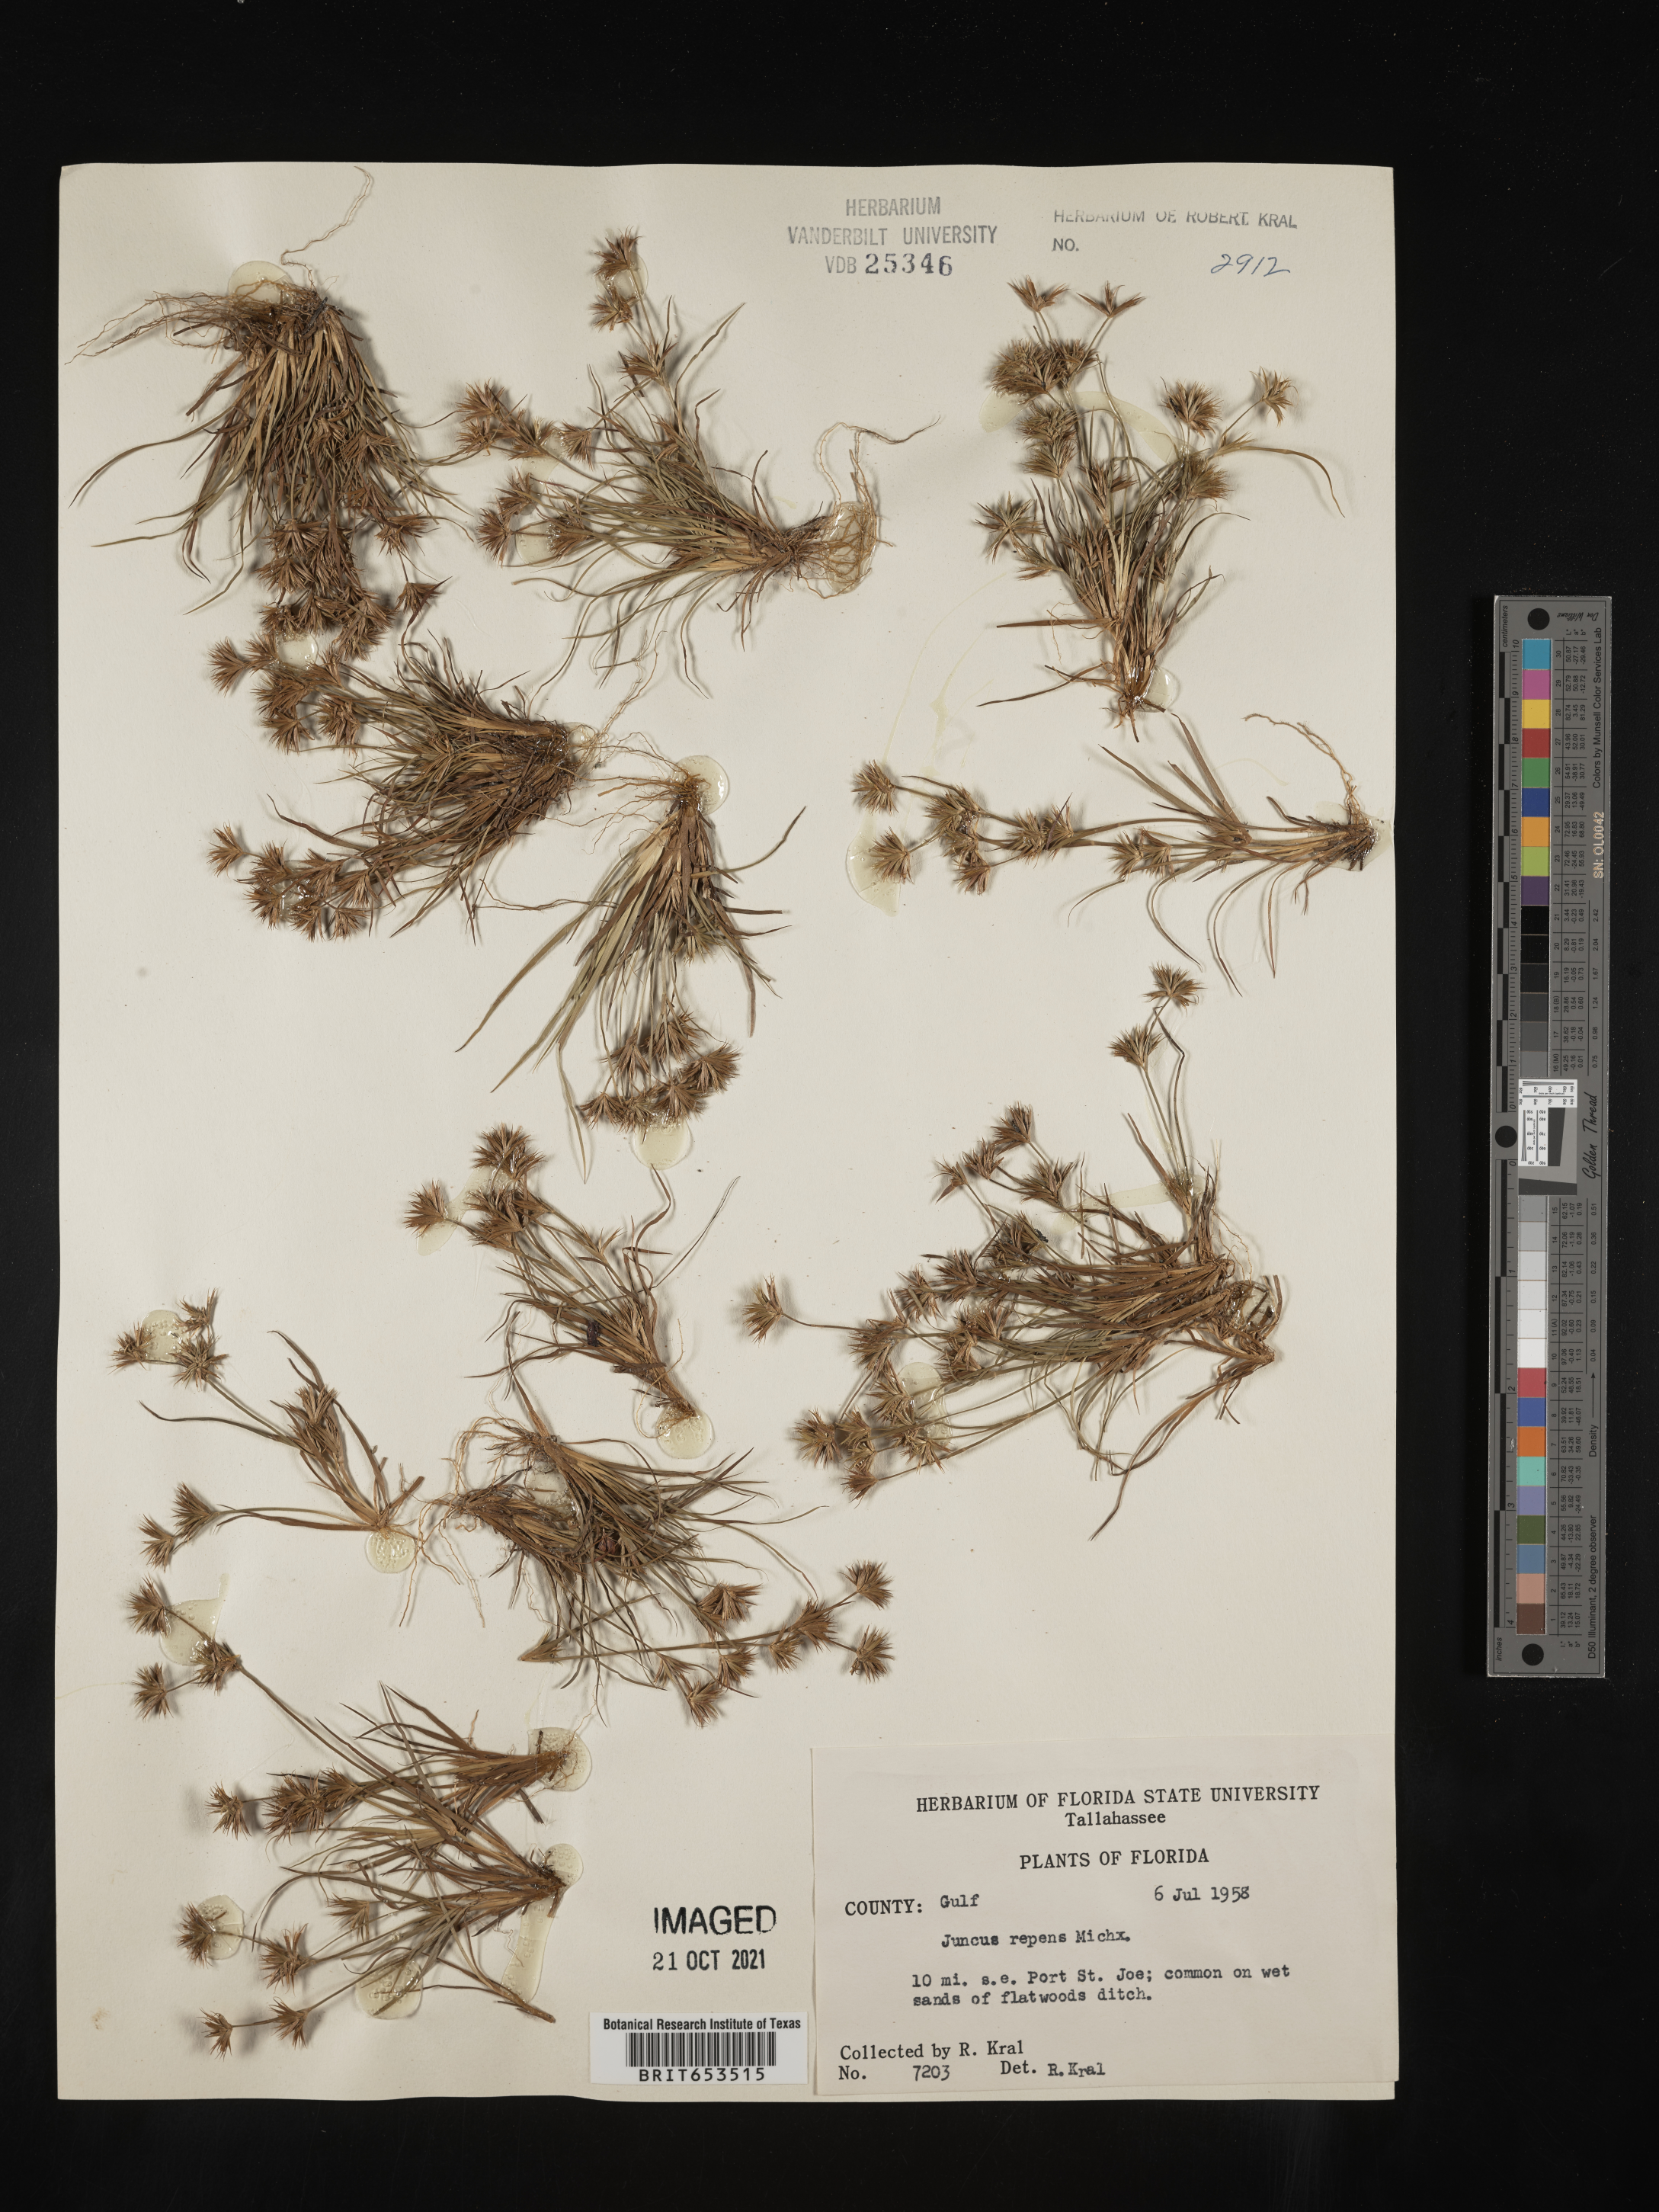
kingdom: Plantae
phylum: Tracheophyta
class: Liliopsida
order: Poales
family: Juncaceae
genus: Juncus
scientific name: Juncus repens
